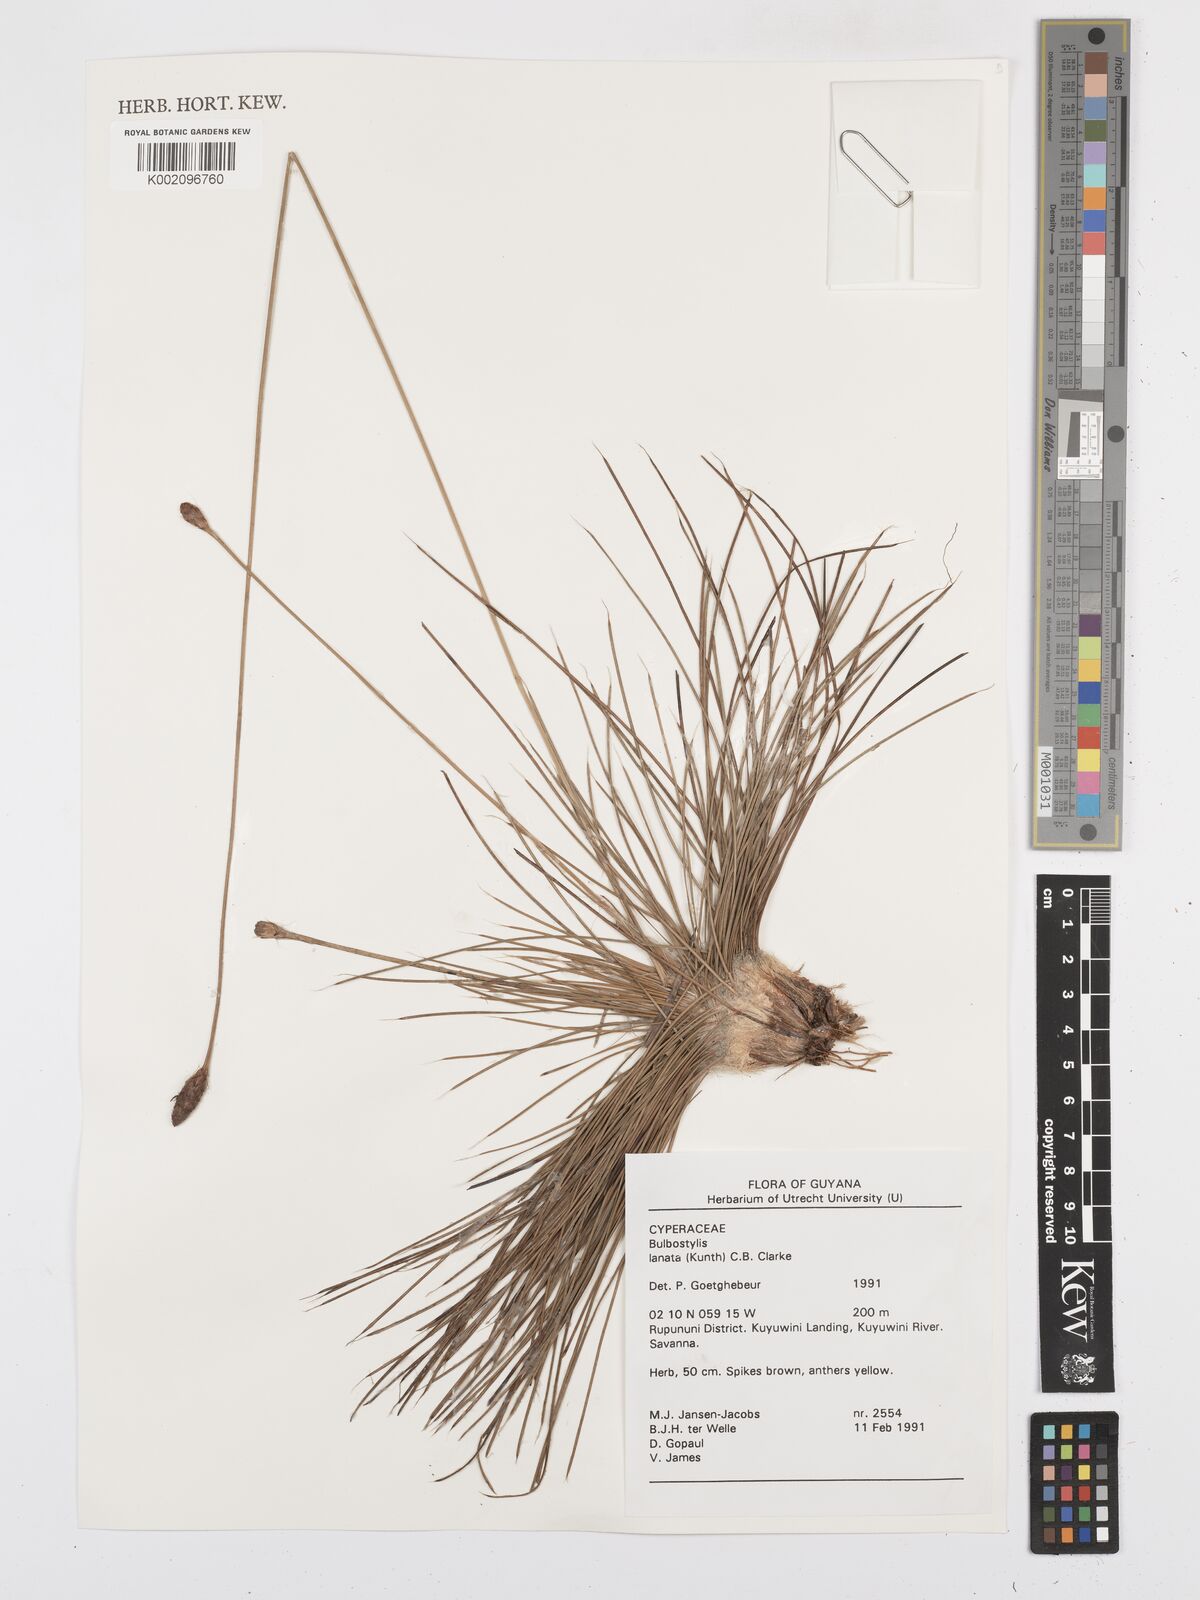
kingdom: Plantae
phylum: Tracheophyta
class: Liliopsida
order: Poales
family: Cyperaceae
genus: Bulbostylis
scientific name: Bulbostylis
